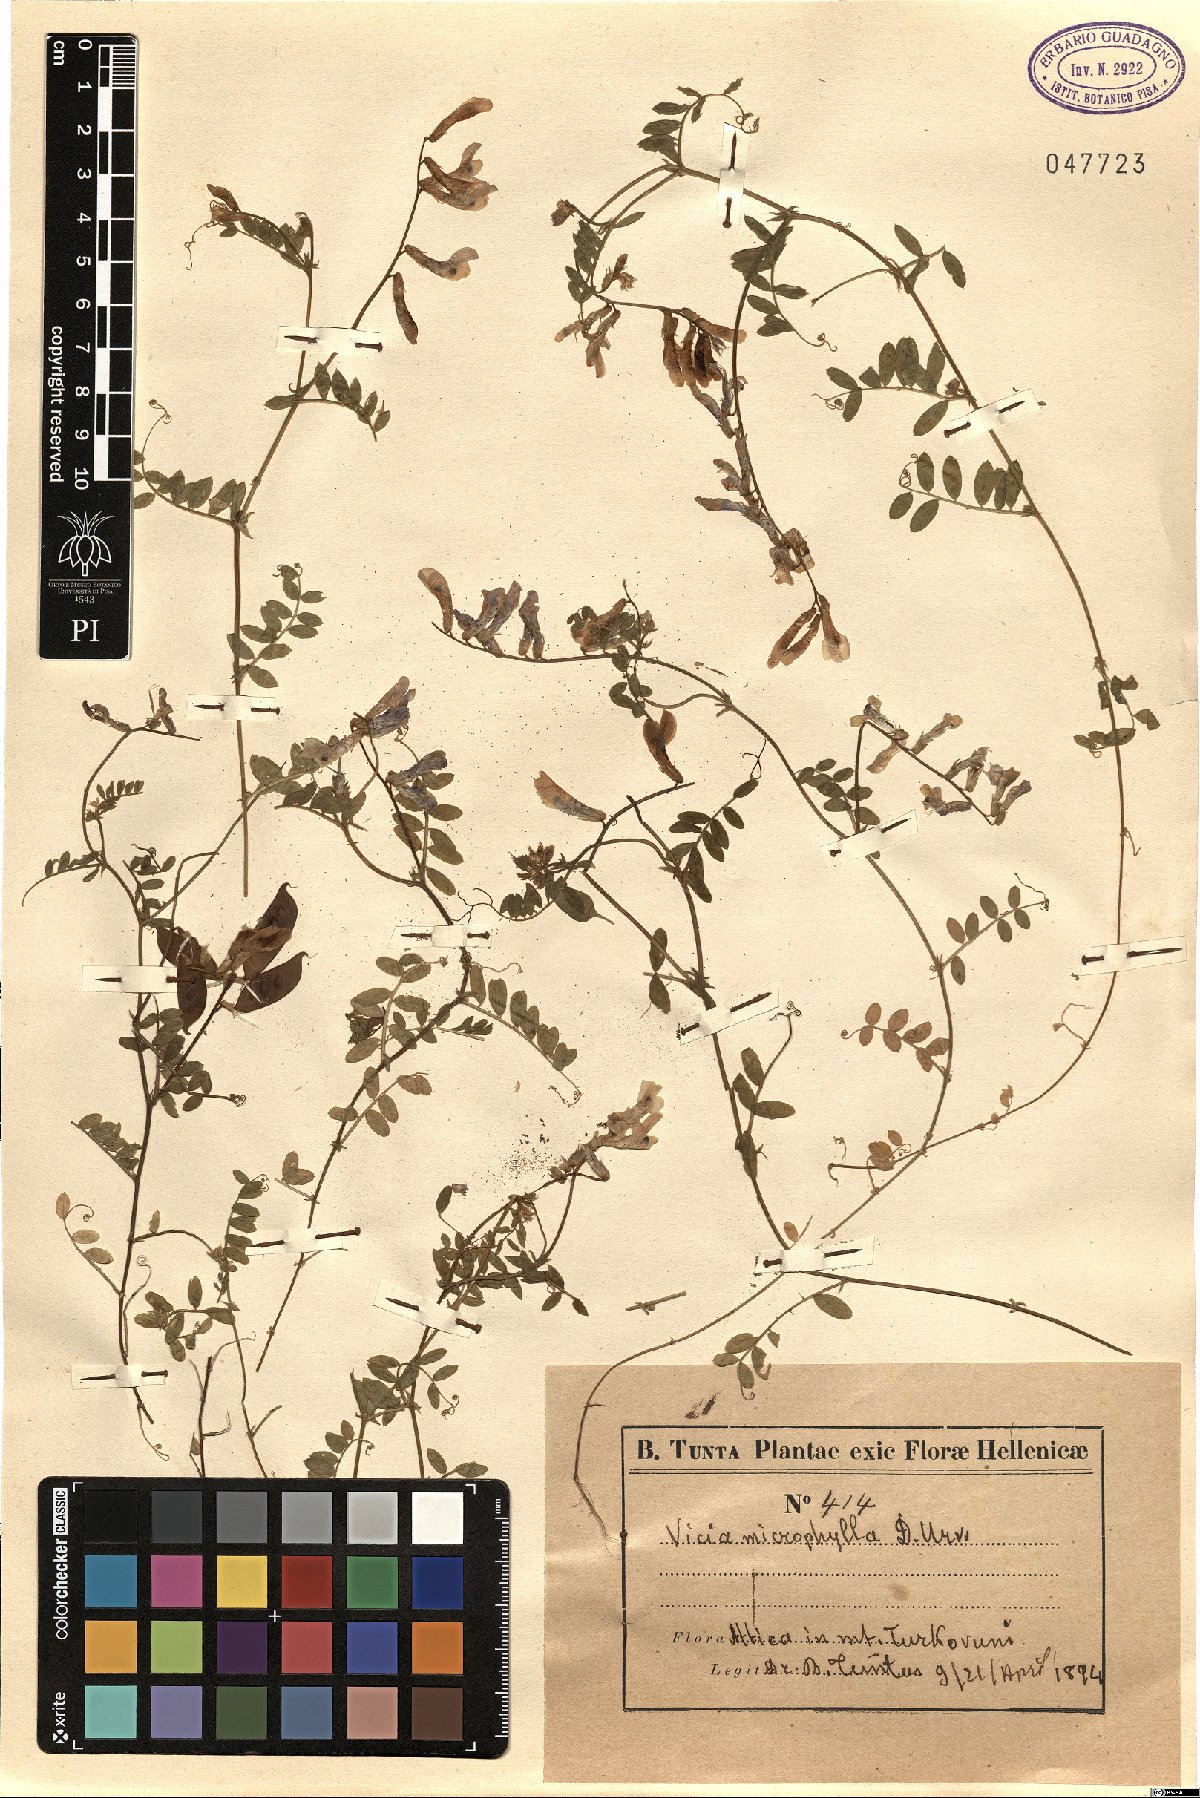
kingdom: Plantae
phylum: Tracheophyta
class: Magnoliopsida
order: Fabales
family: Fabaceae
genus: Vicia
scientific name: Vicia villosa
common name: Fodder vetch
